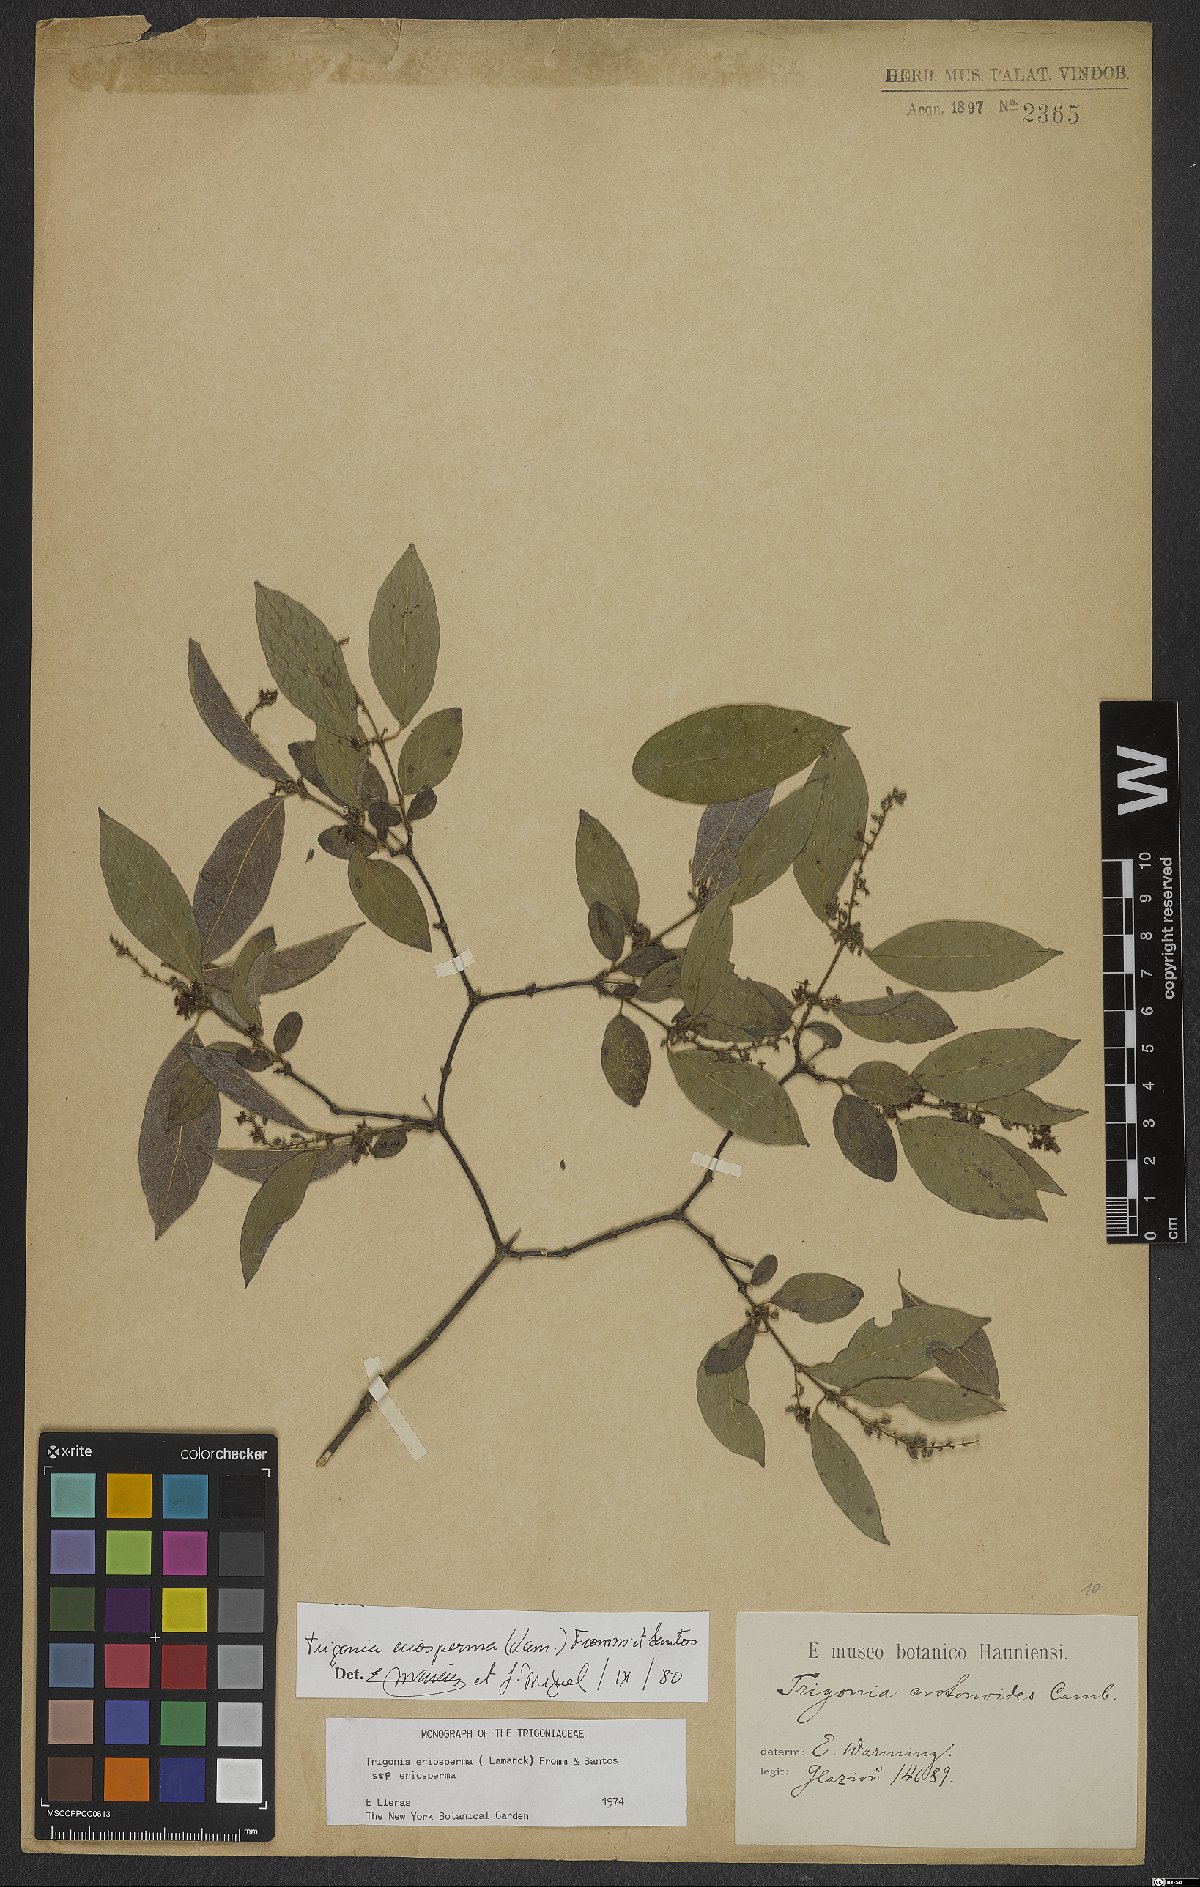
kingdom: Plantae
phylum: Tracheophyta
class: Magnoliopsida
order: Malpighiales
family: Trigoniaceae
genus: Trigonia
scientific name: Trigonia eriosperma
